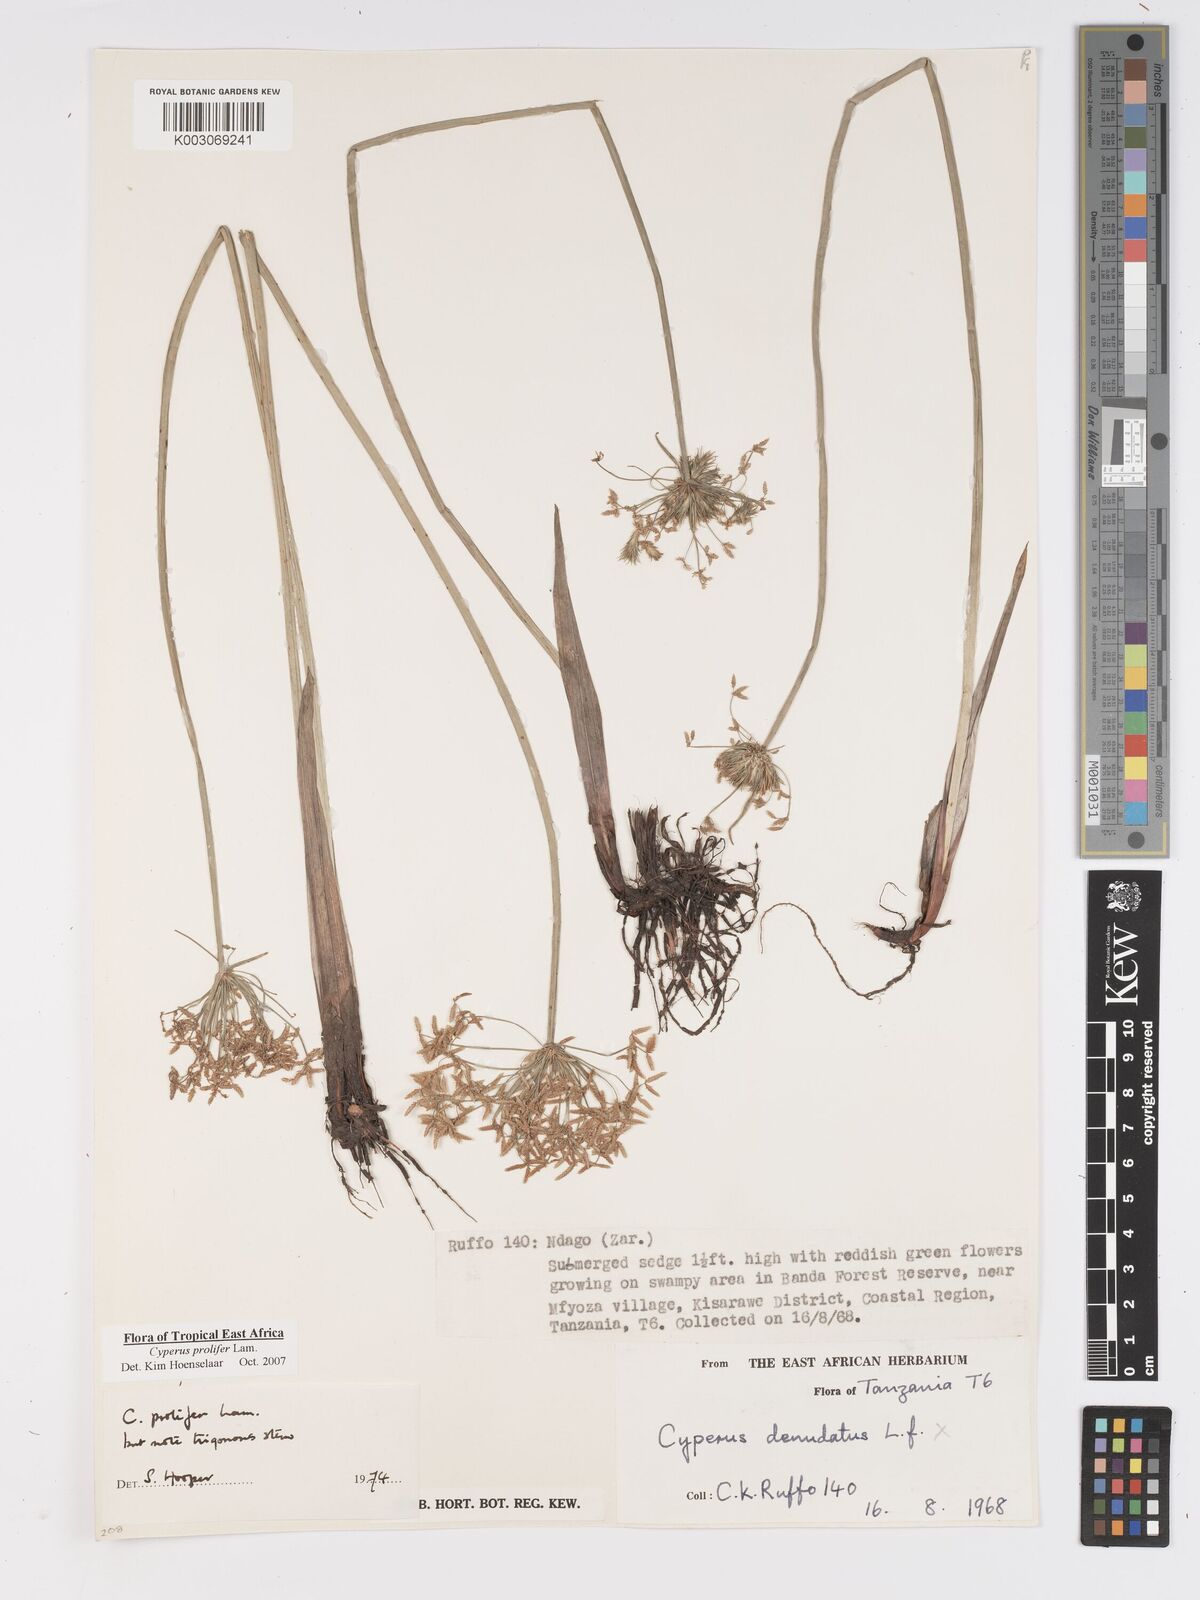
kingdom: Plantae
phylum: Tracheophyta
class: Liliopsida
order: Poales
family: Cyperaceae
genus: Cyperus
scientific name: Cyperus prolifer
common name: Miniature flatsedge
